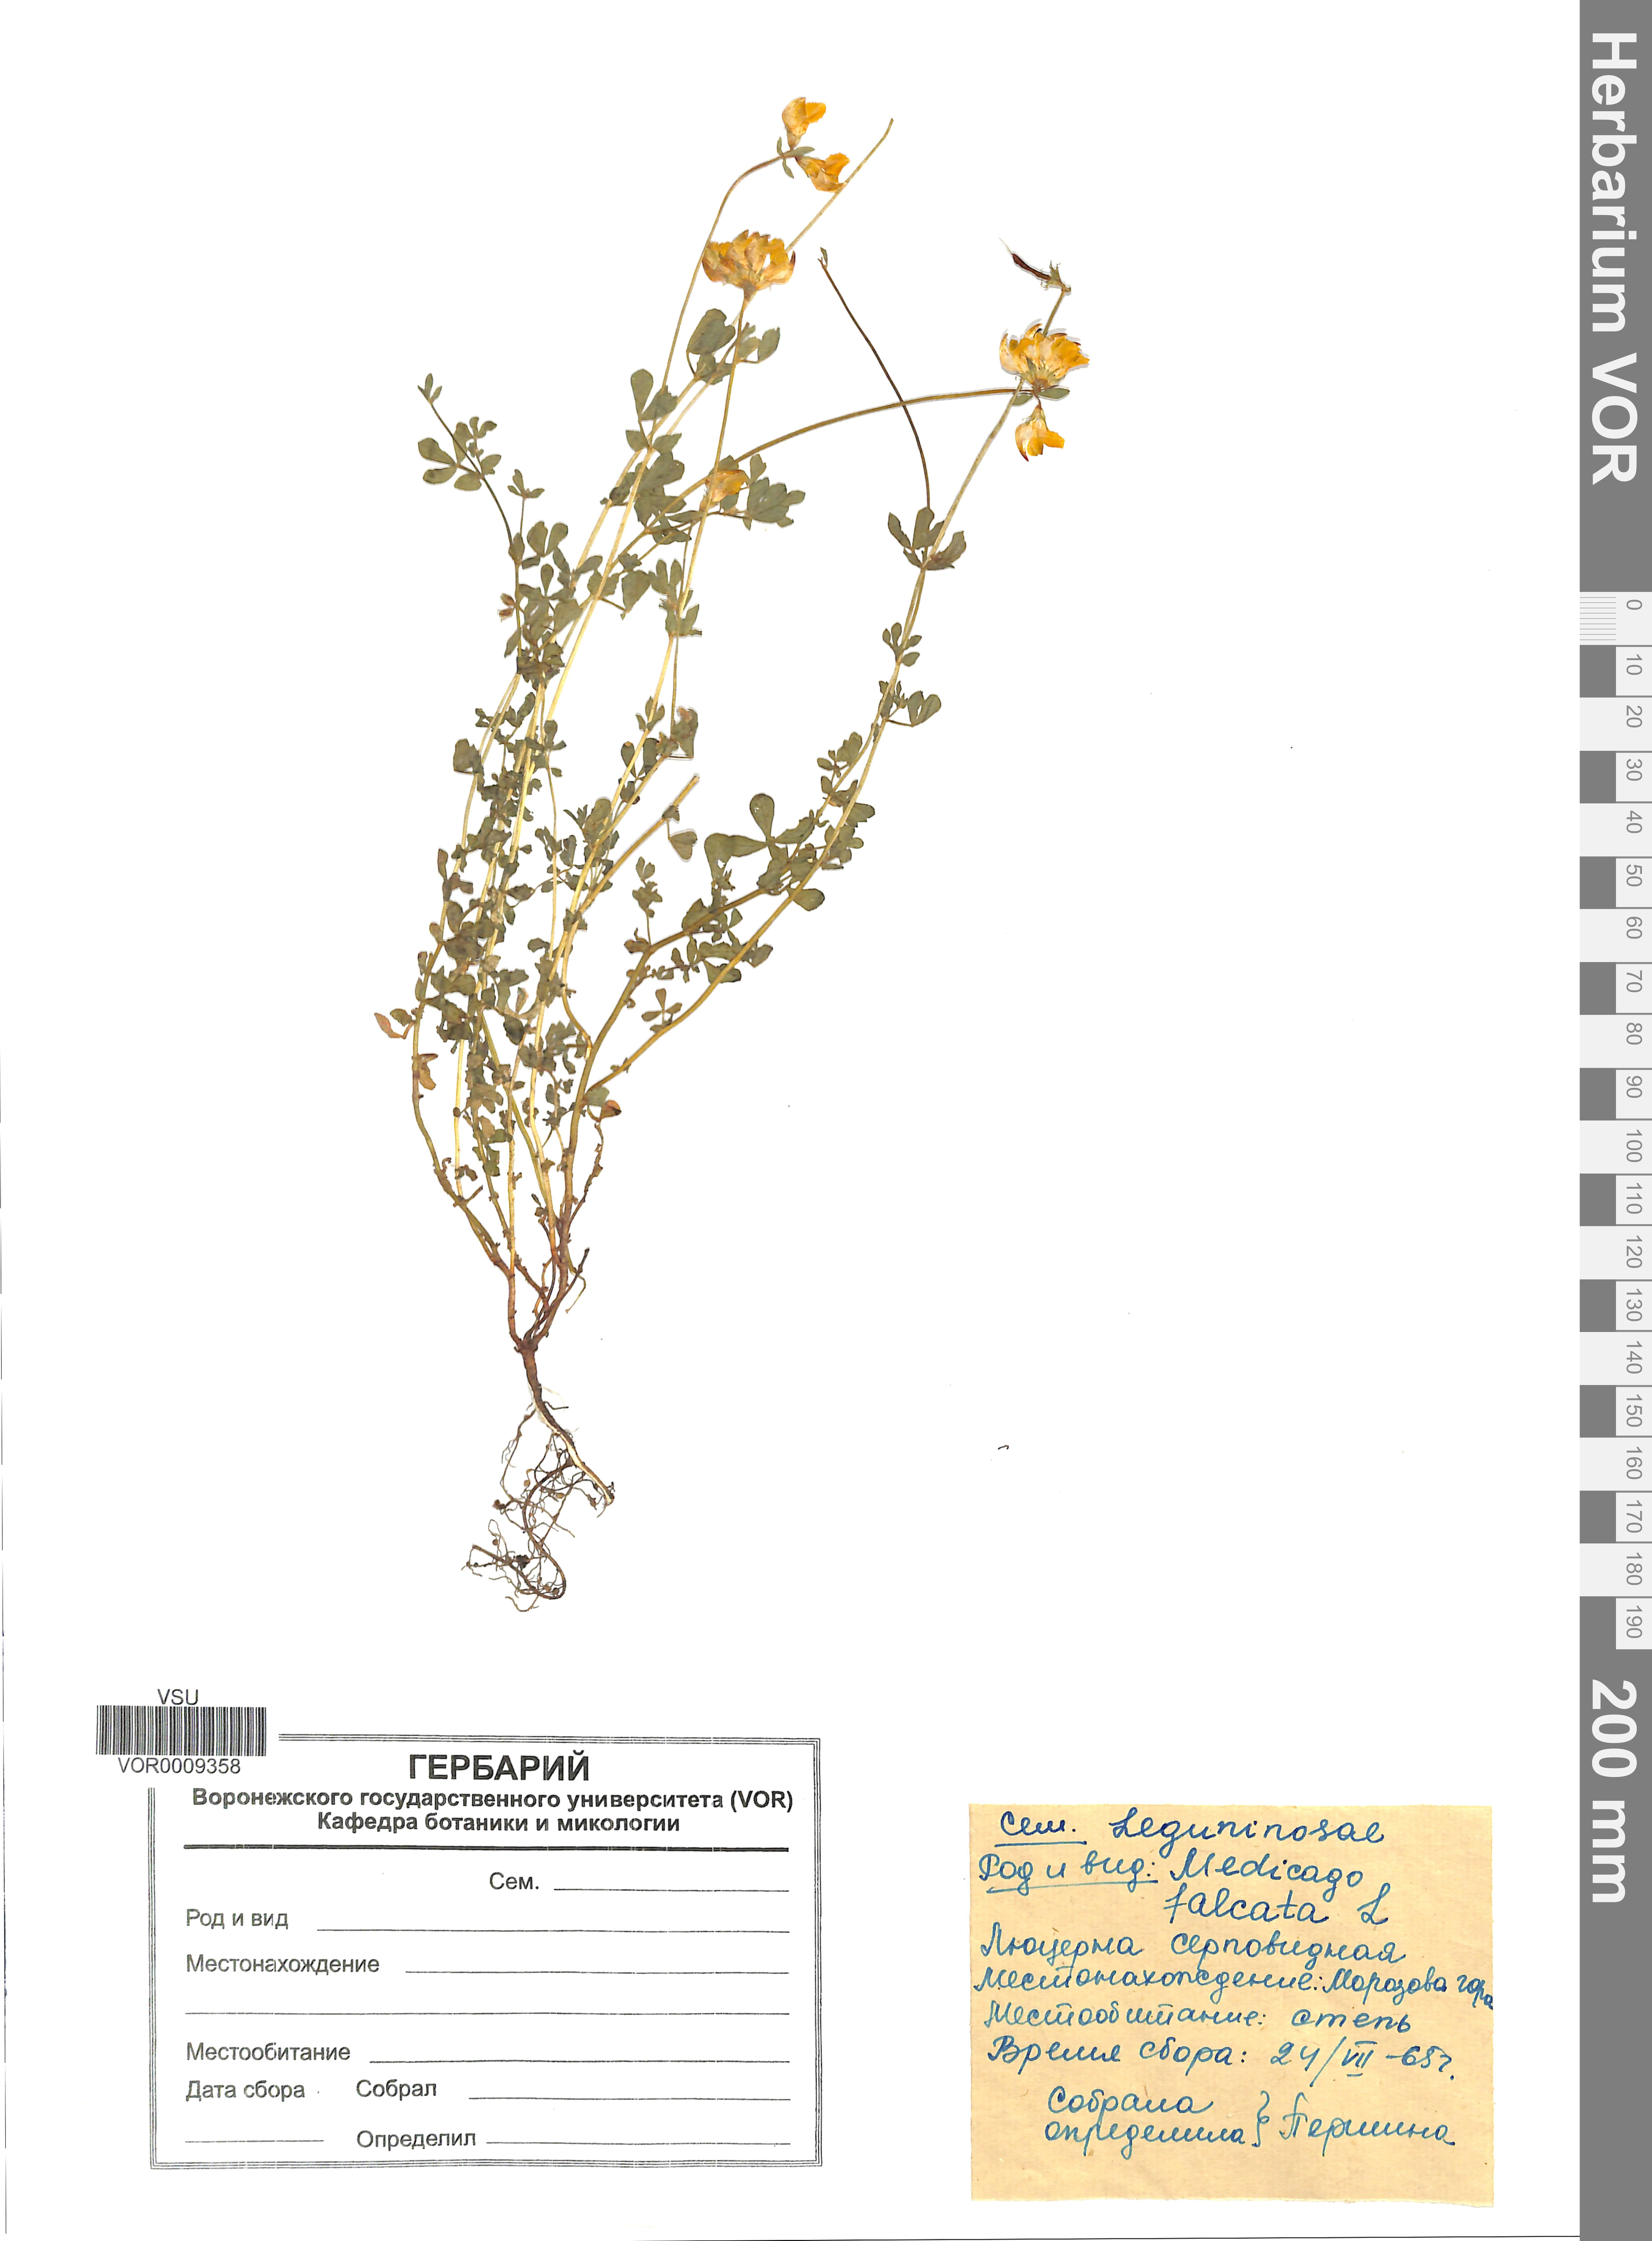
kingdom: Plantae
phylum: Tracheophyta
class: Magnoliopsida
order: Fabales
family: Fabaceae
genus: Medicago
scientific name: Medicago falcata
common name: Sickle medick
